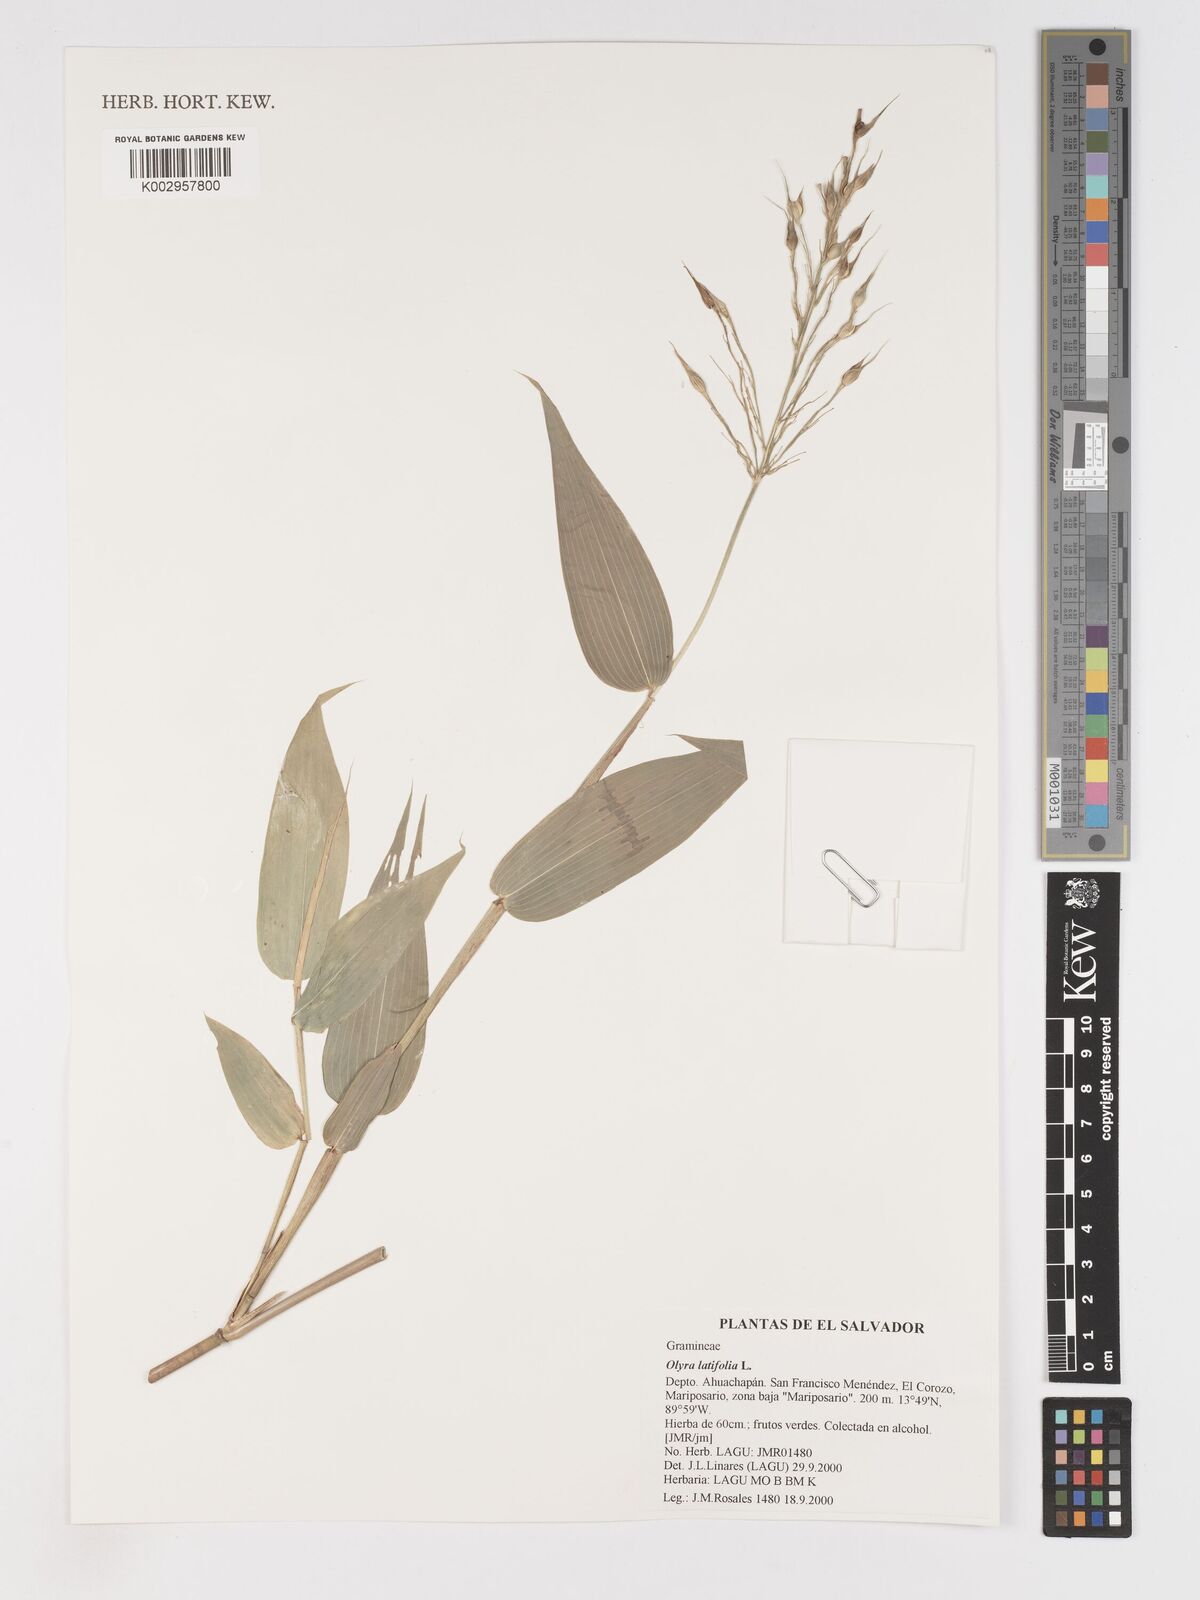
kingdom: Plantae
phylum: Tracheophyta
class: Liliopsida
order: Poales
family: Poaceae
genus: Olyra
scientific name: Olyra latifolia
